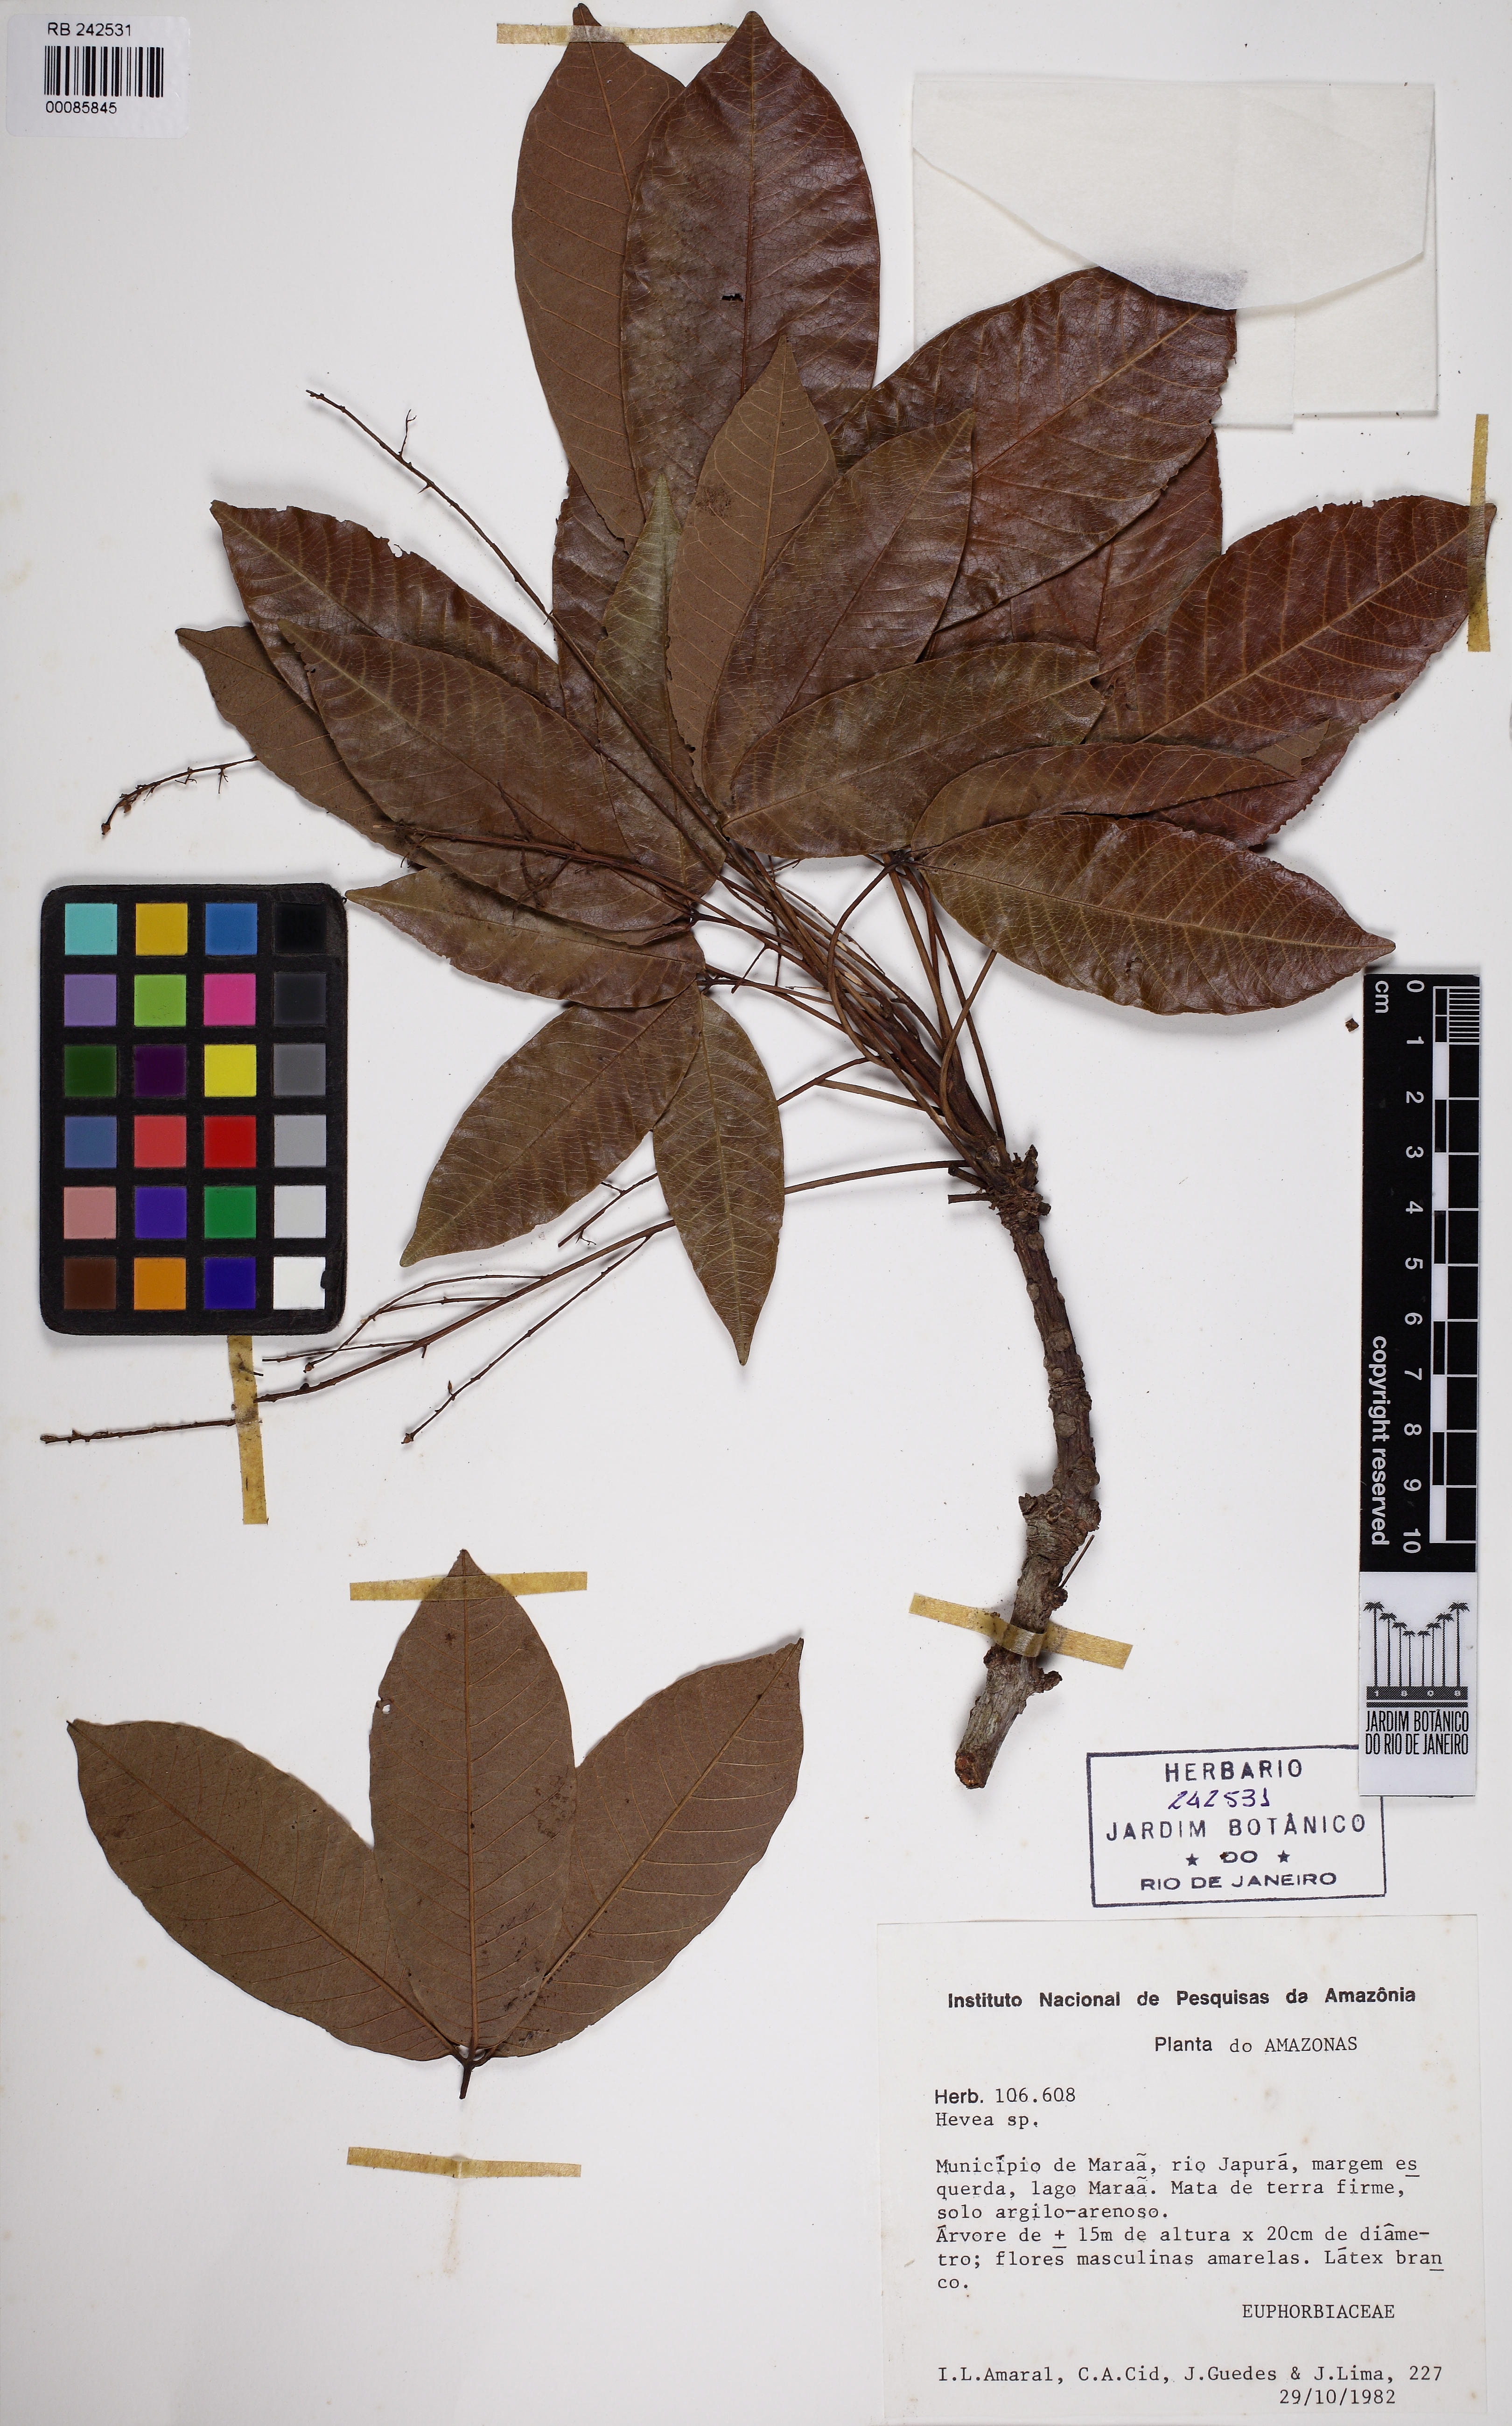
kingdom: Plantae
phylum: Tracheophyta
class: Magnoliopsida
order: Malpighiales
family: Euphorbiaceae
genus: Hevea
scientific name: Hevea
